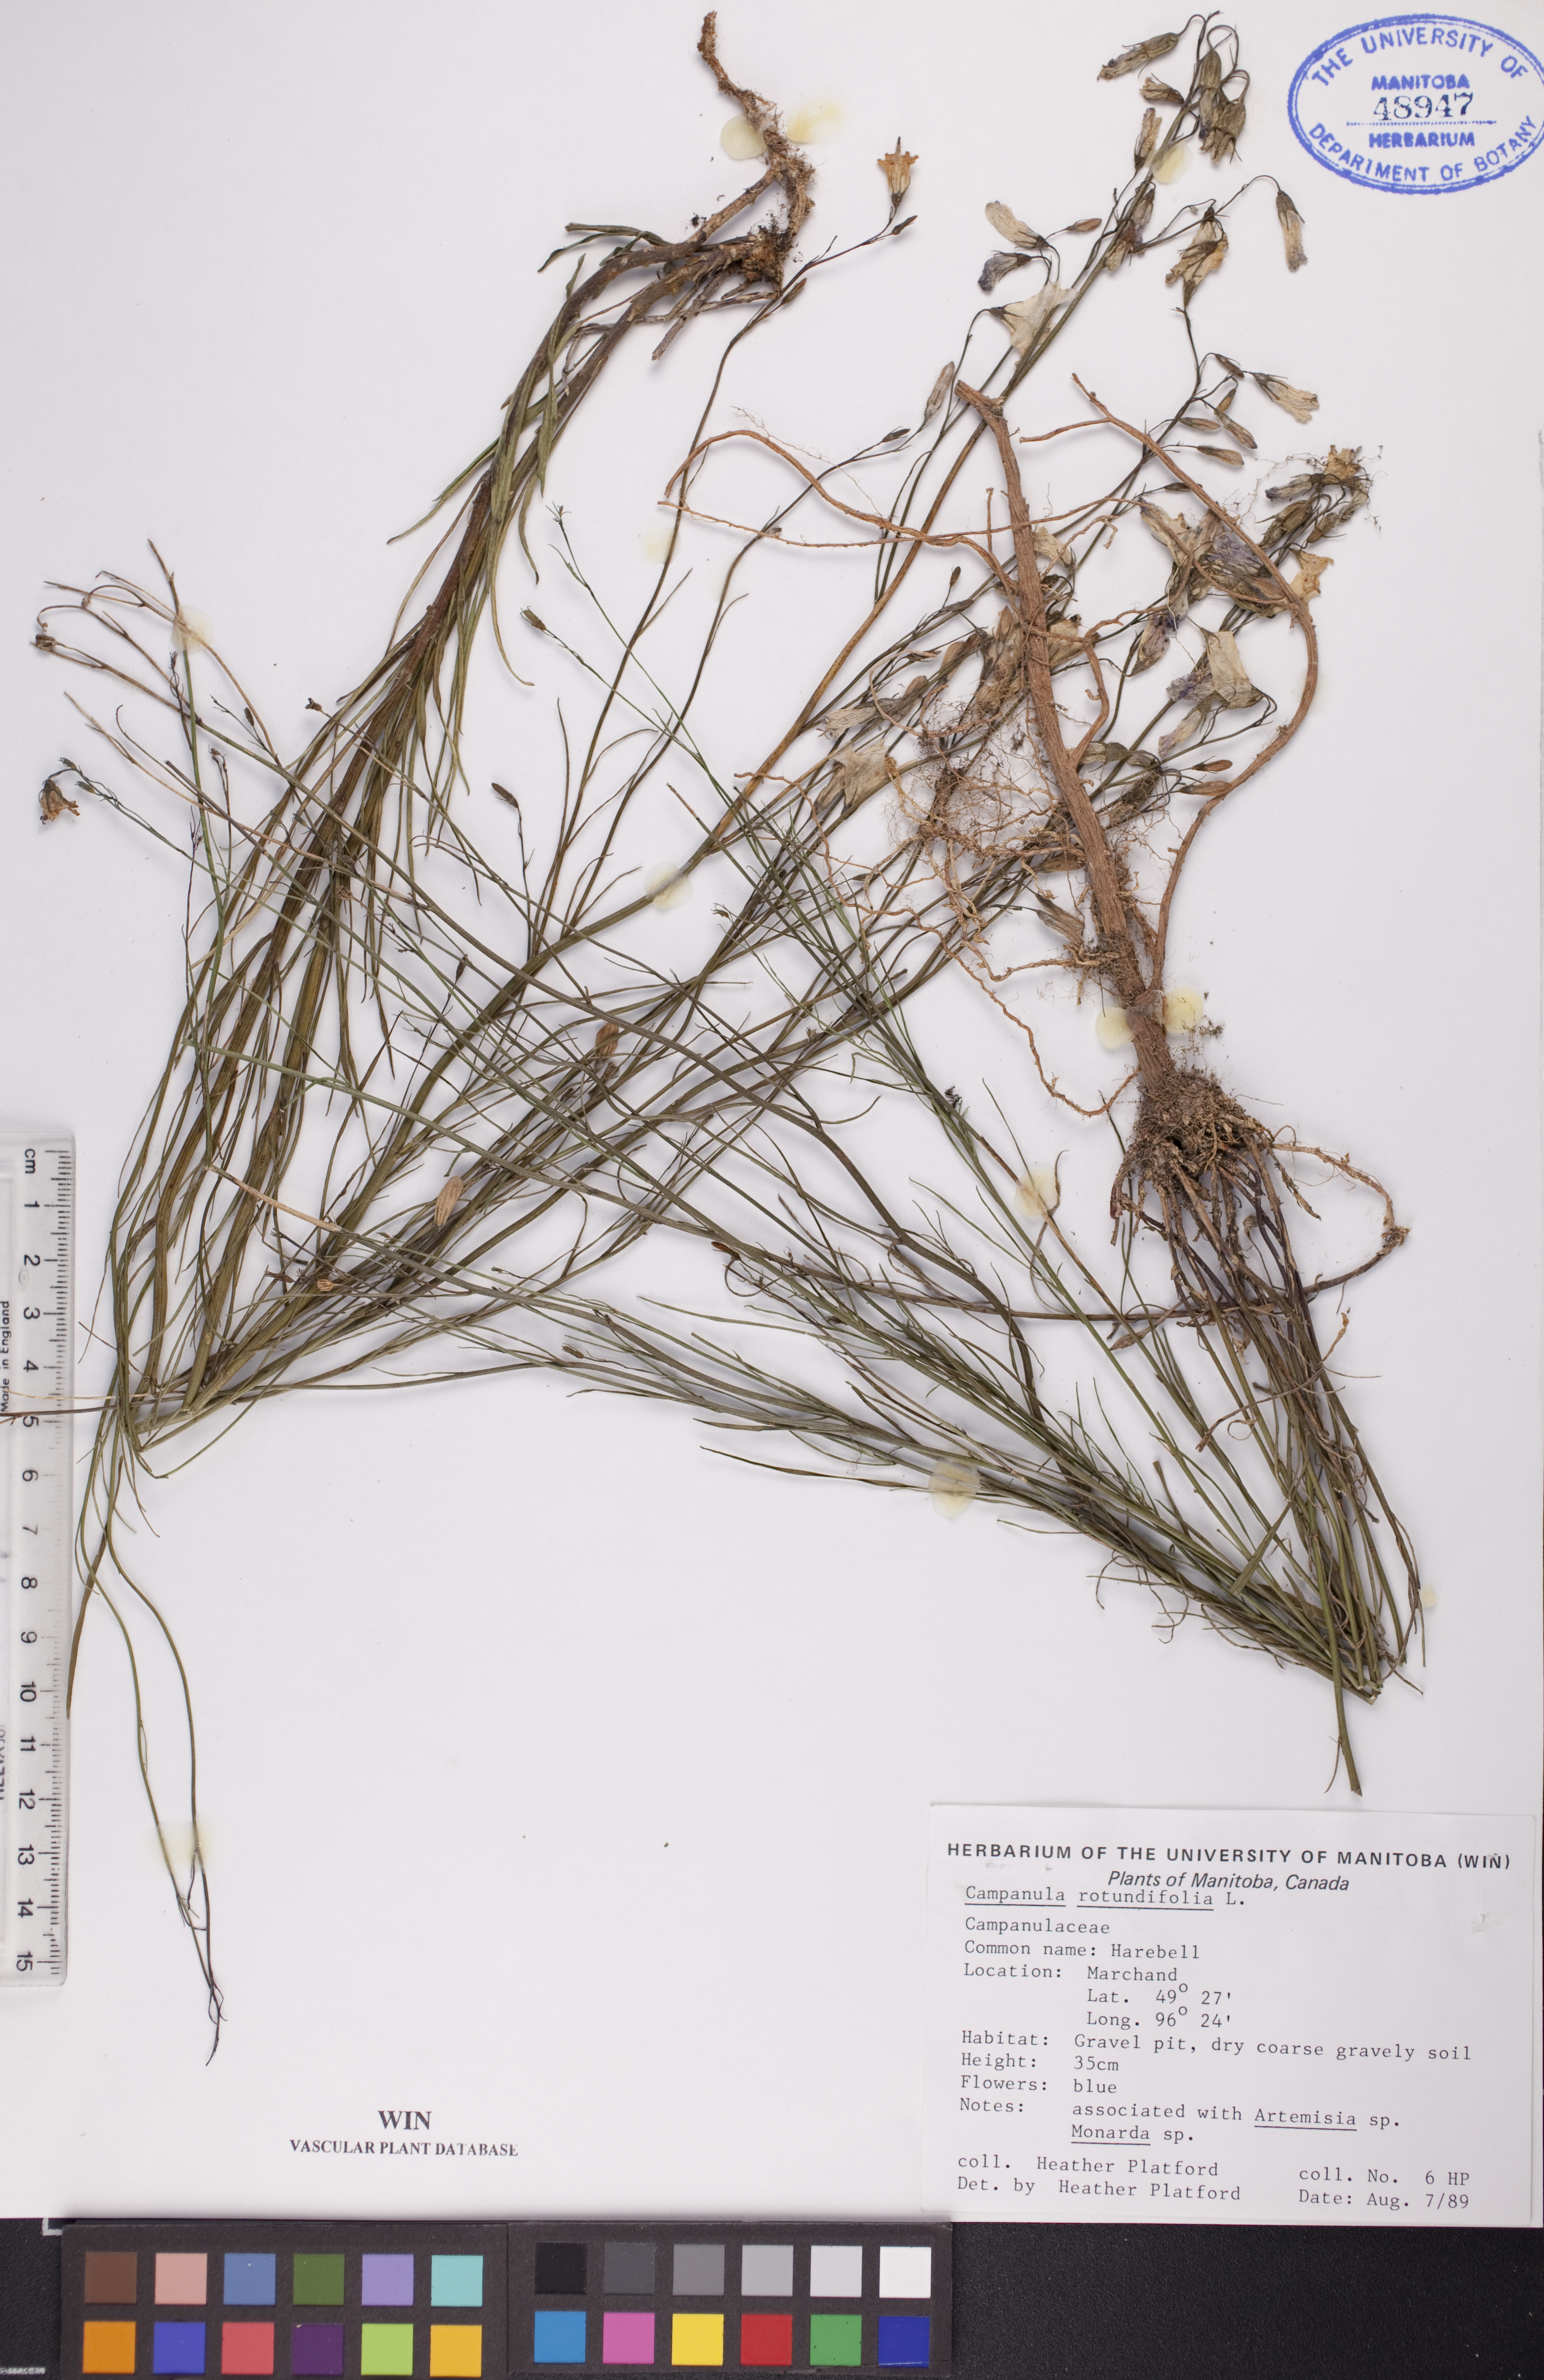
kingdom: Plantae
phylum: Tracheophyta
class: Magnoliopsida
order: Asterales
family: Campanulaceae
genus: Campanula
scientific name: Campanula rotundifolia
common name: Harebell
